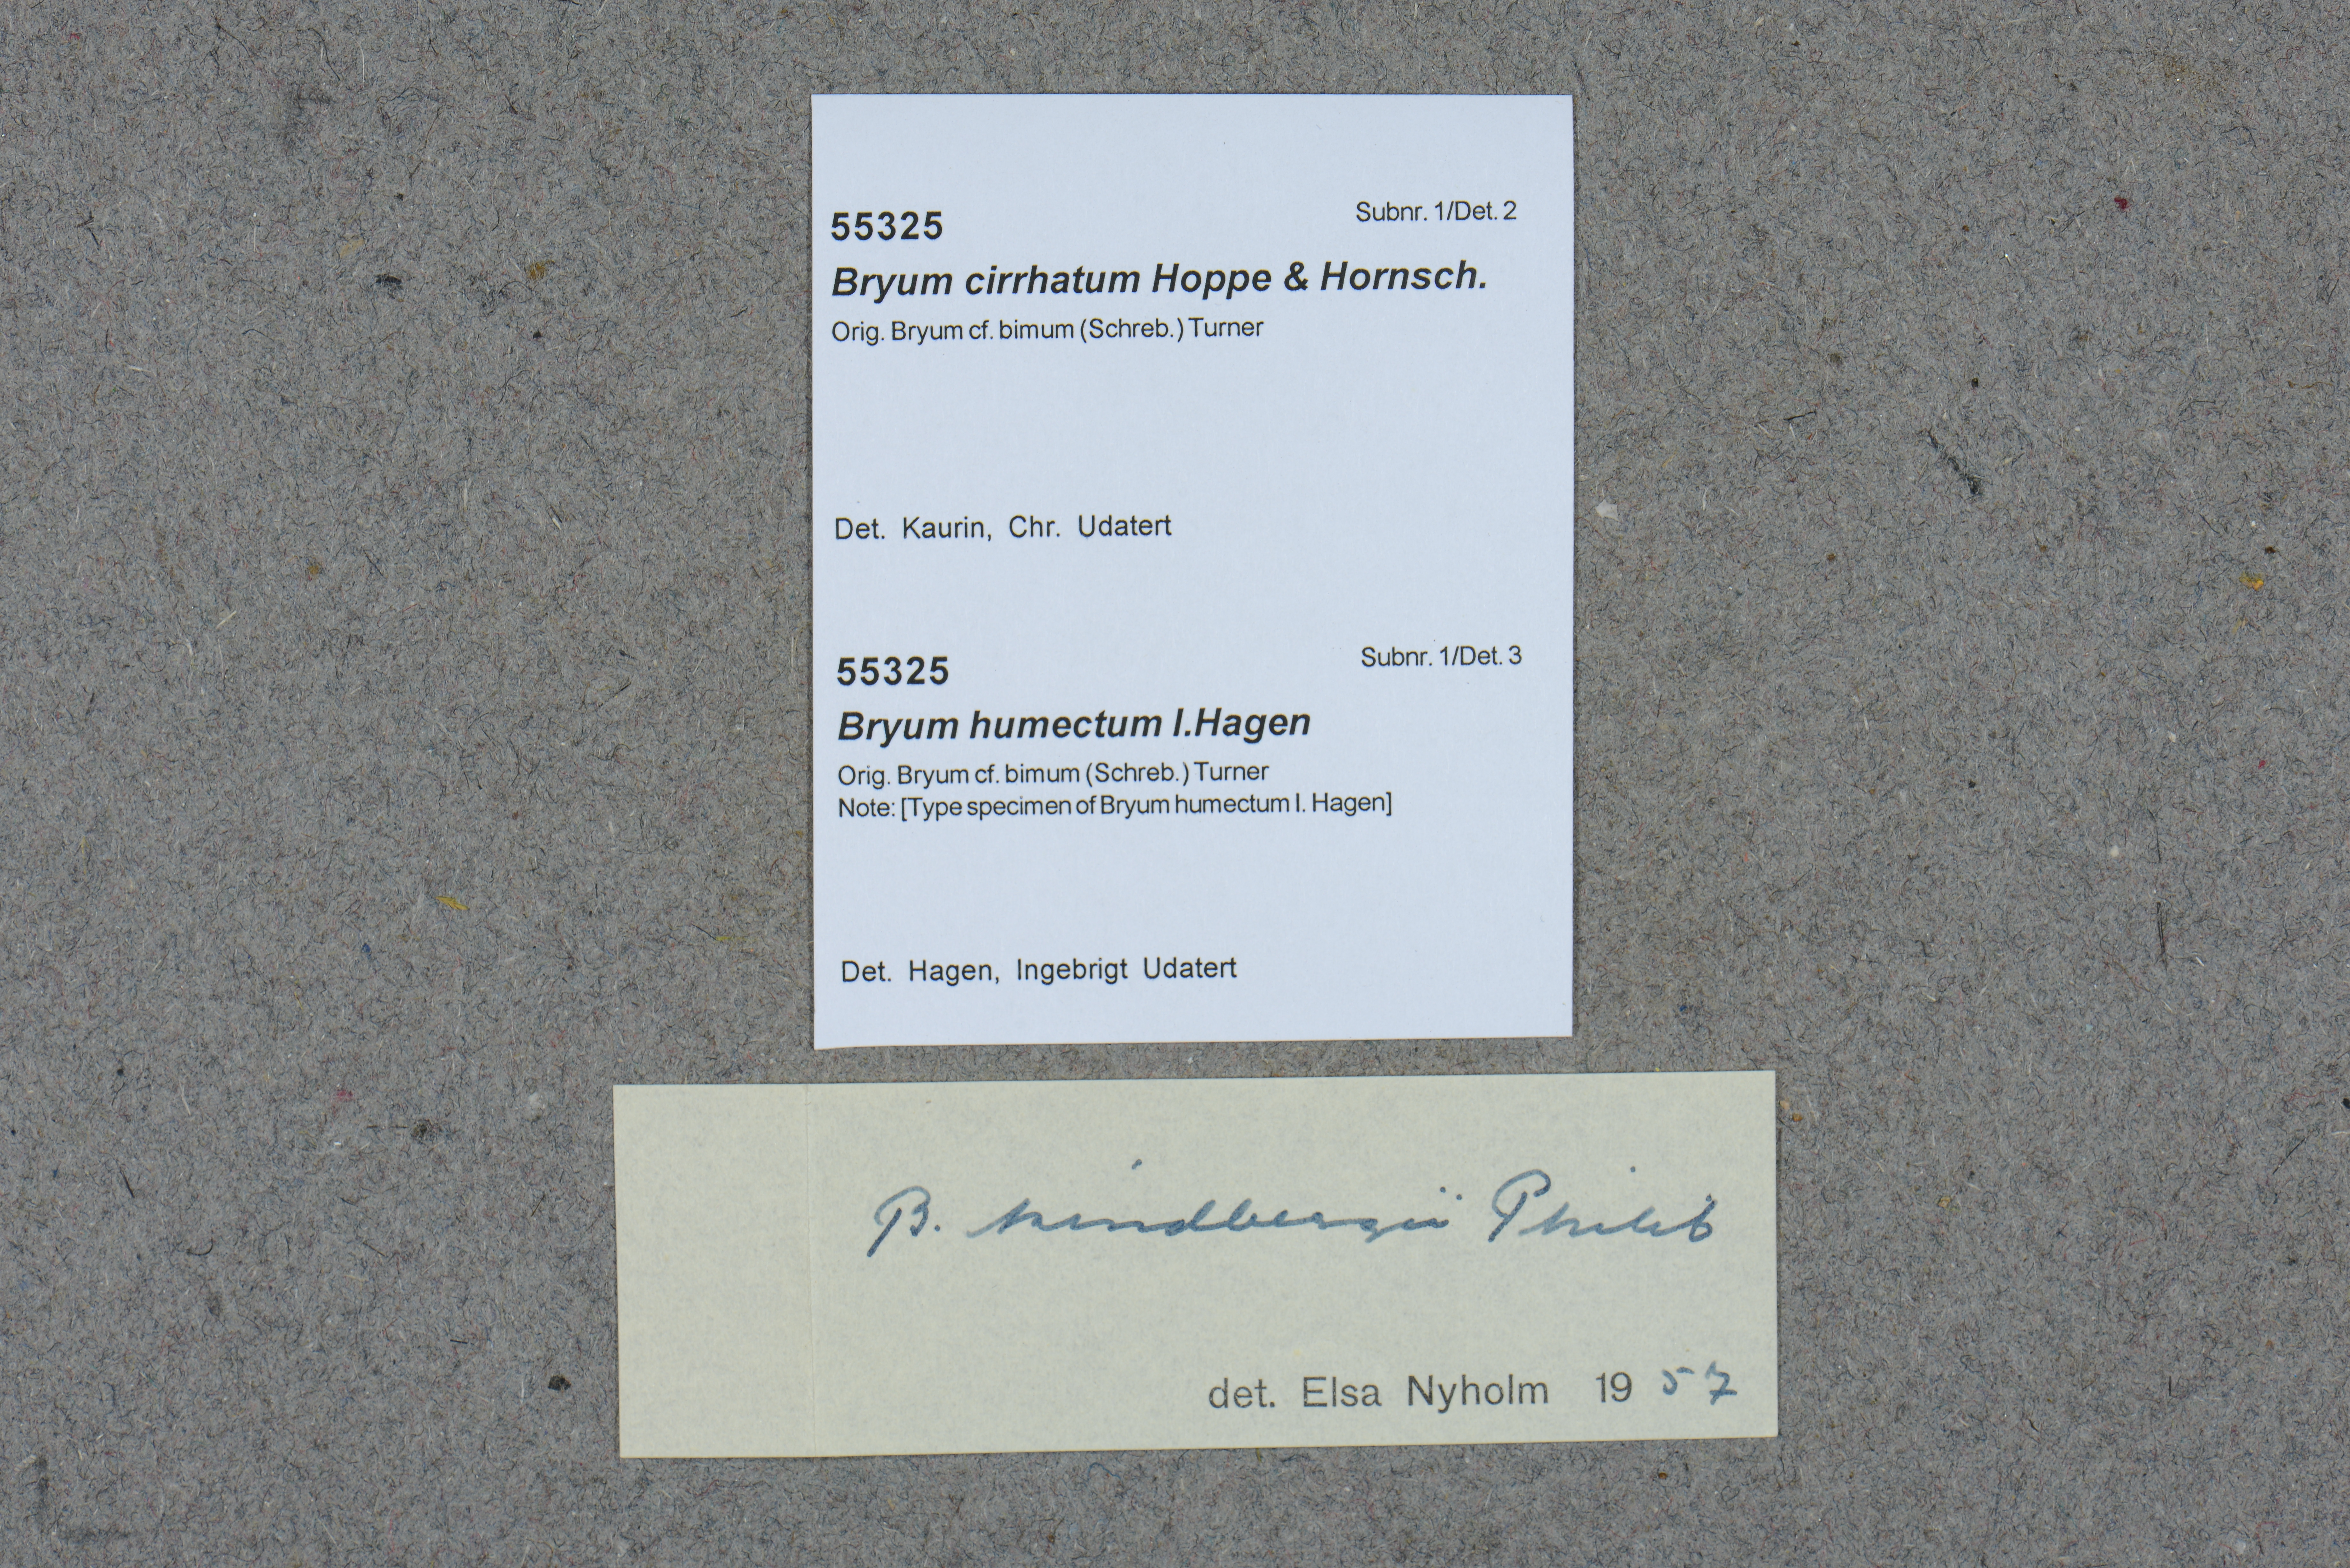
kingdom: Plantae
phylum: Bryophyta
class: Bryopsida
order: Bryales
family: Bryaceae
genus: Ptychostomum
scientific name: Ptychostomum compactum
